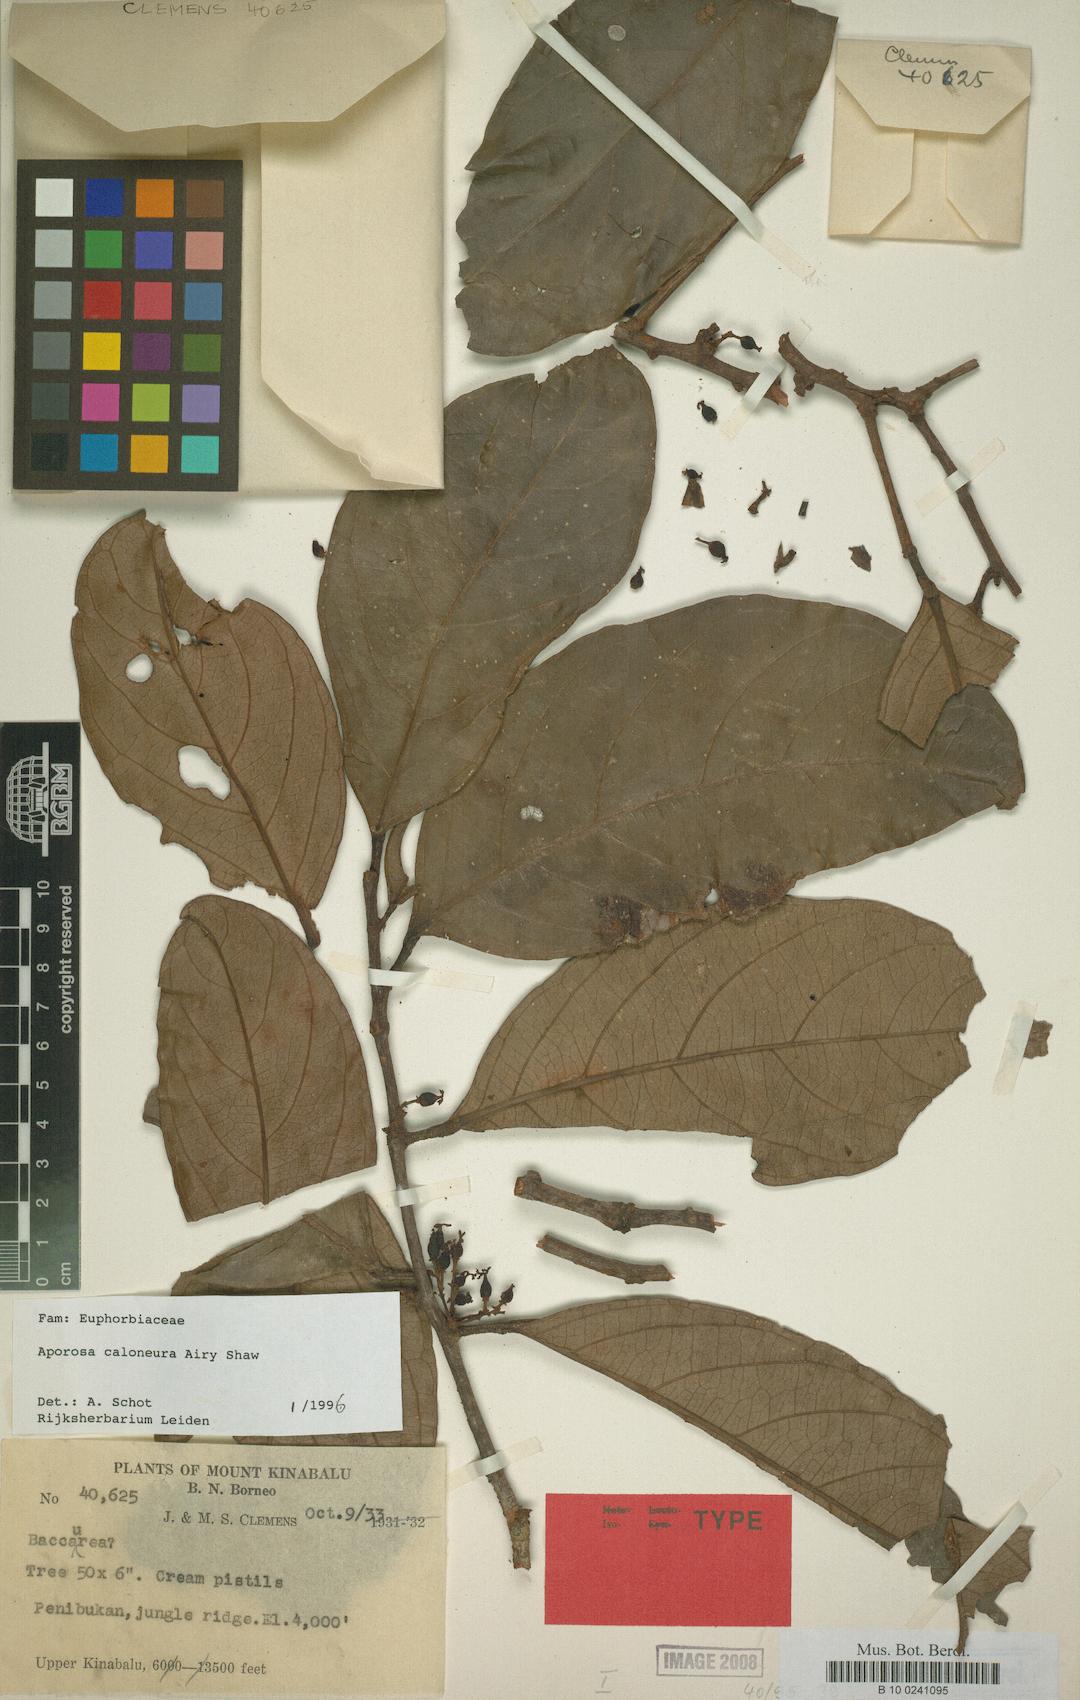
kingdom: Plantae
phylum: Tracheophyta
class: Magnoliopsida
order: Malpighiales
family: Phyllanthaceae
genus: Aporosa
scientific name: Aporosa caloneura
